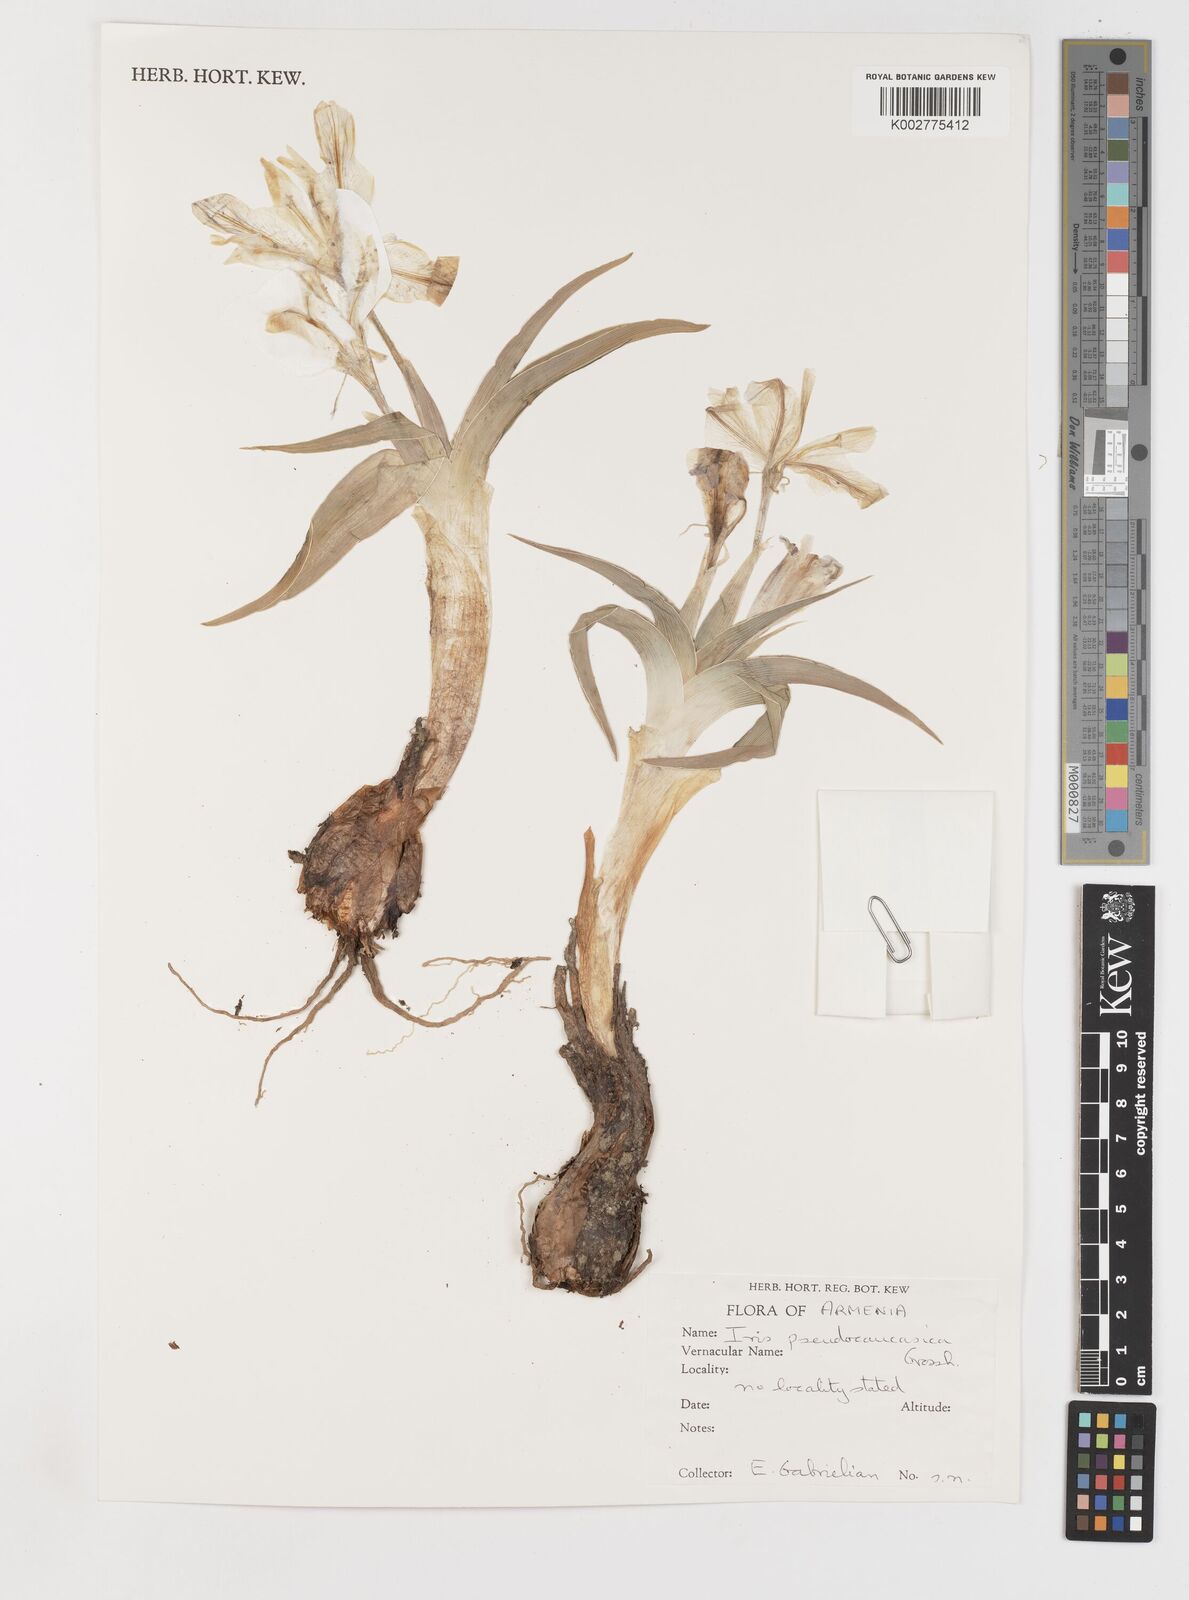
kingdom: Plantae
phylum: Tracheophyta
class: Liliopsida
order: Asparagales
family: Iridaceae
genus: Iris
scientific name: Iris pseudocaucasica
